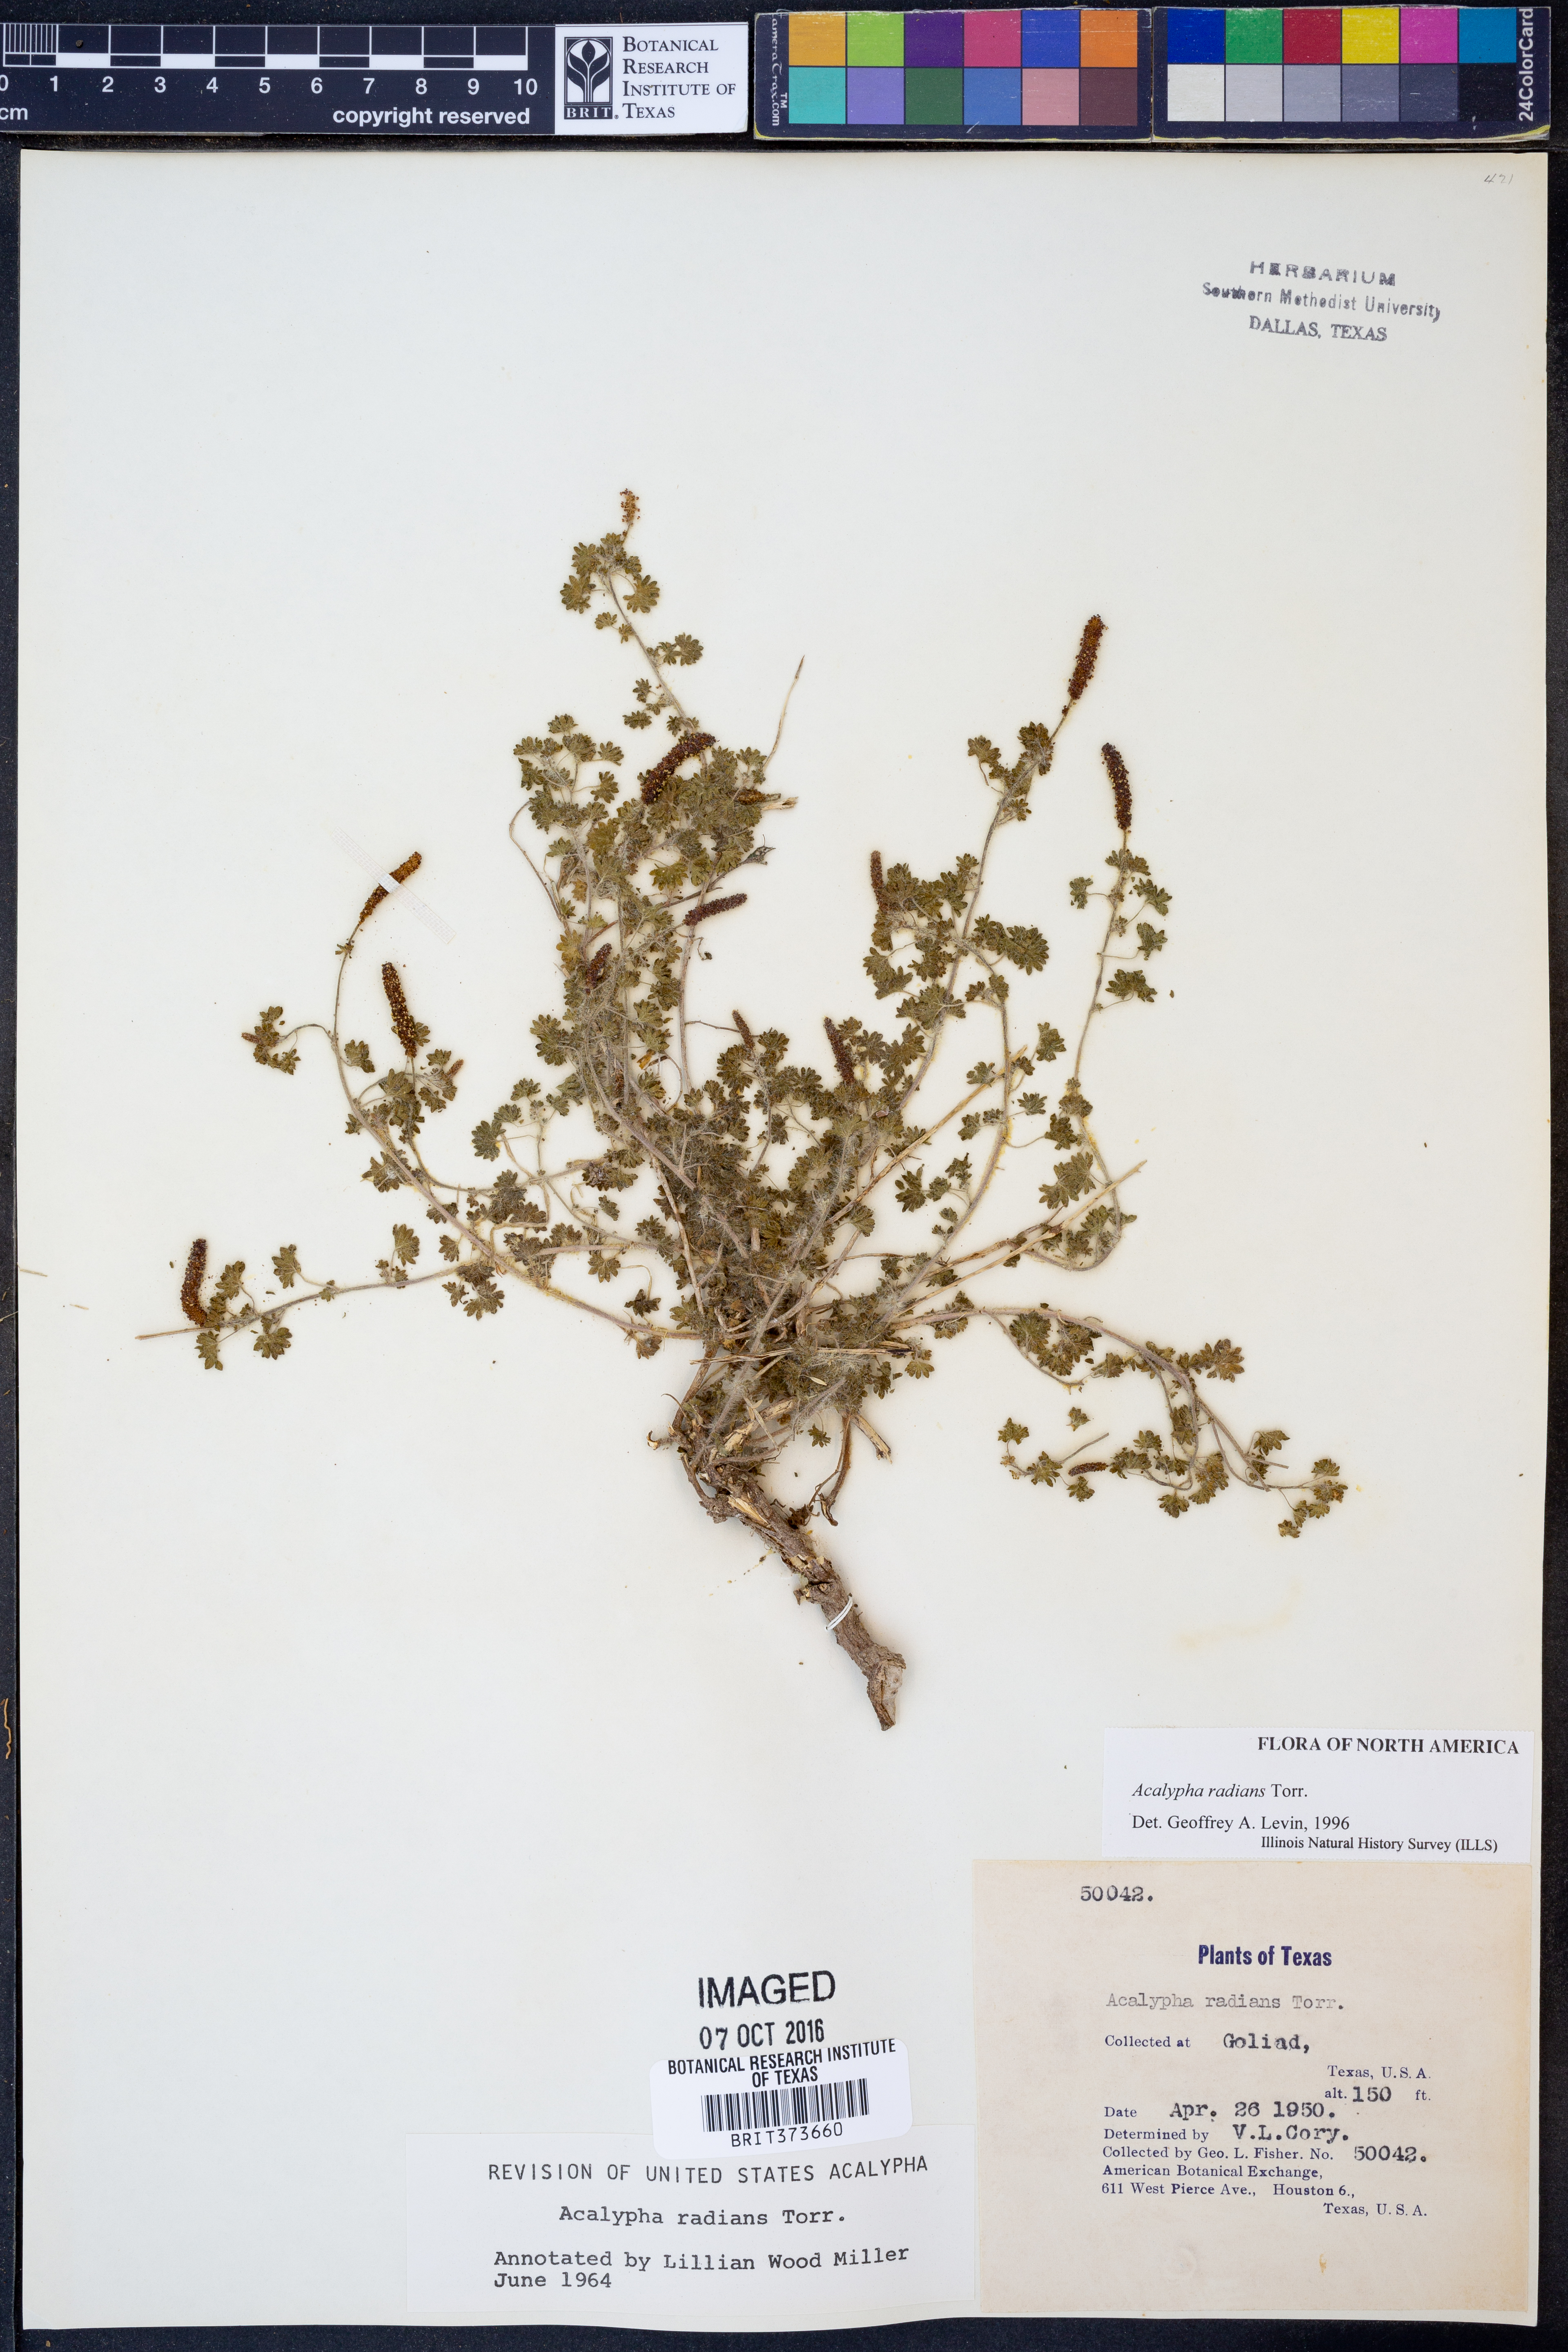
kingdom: Plantae
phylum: Tracheophyta
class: Magnoliopsida
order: Malpighiales
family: Euphorbiaceae
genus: Acalypha
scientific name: Acalypha radians
